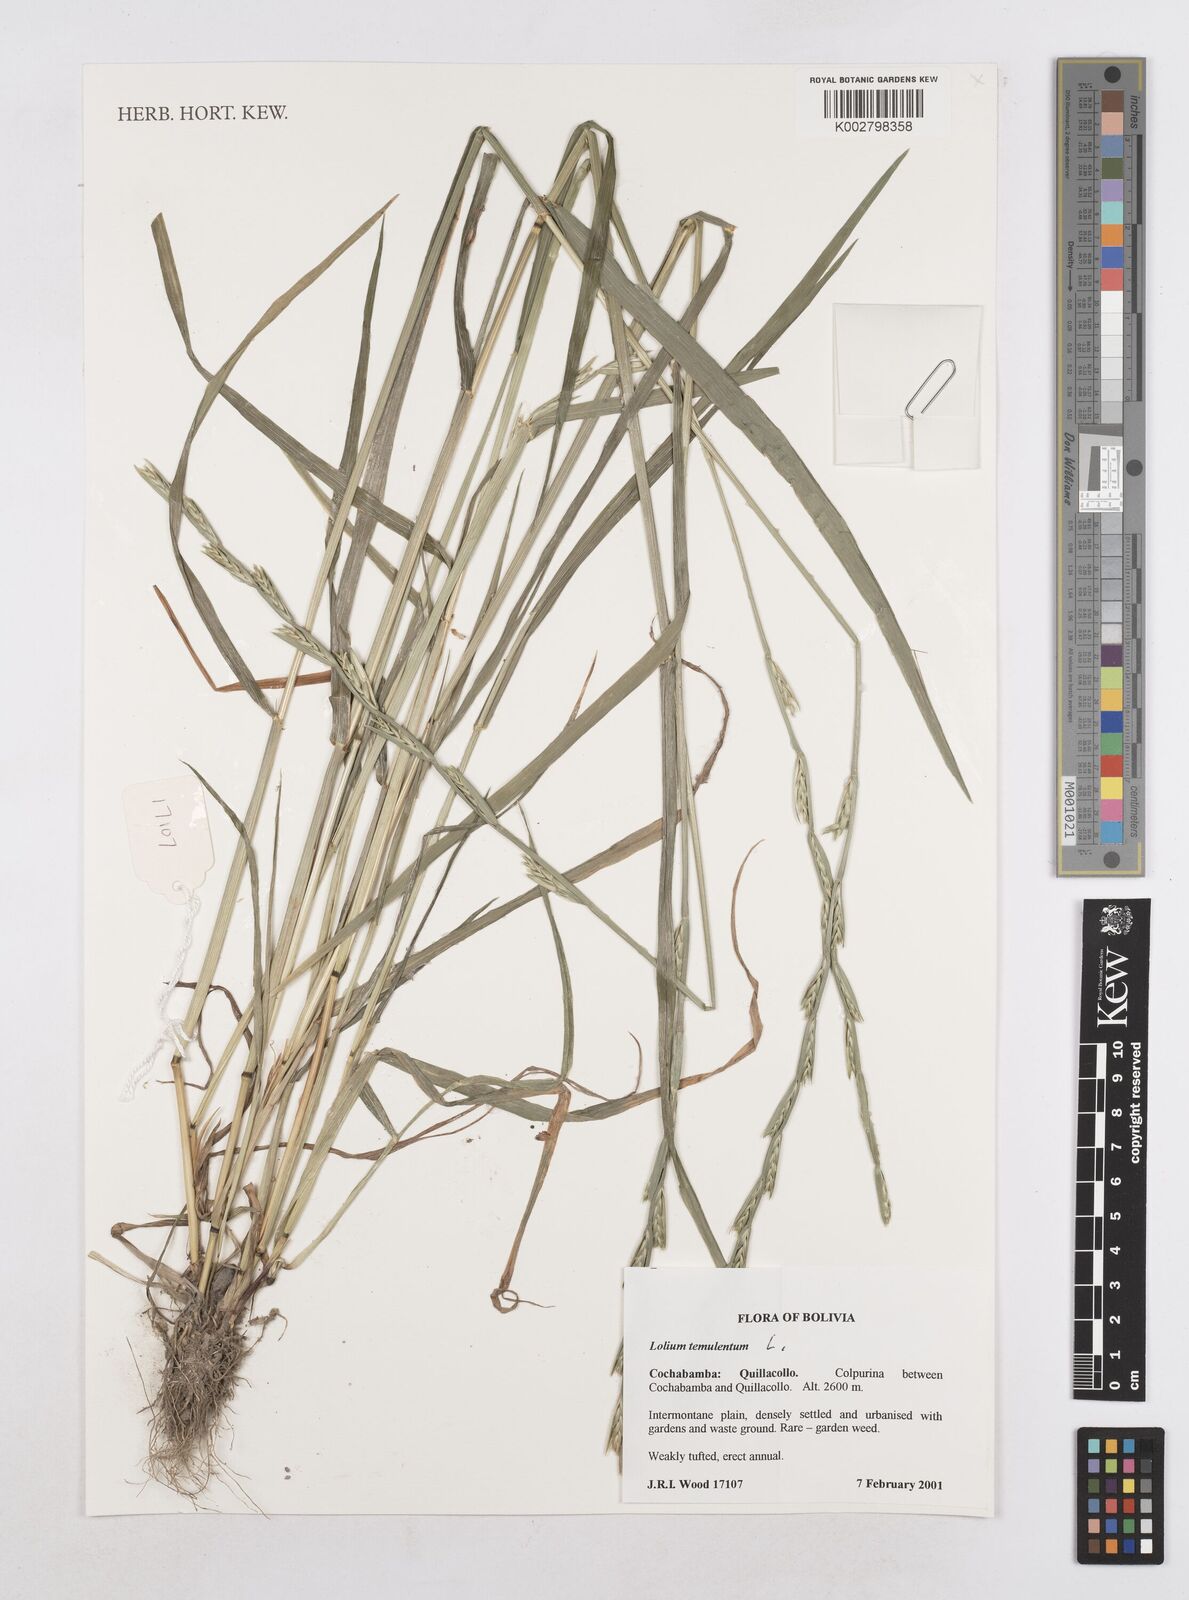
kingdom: Plantae
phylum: Tracheophyta
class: Liliopsida
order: Poales
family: Poaceae
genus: Lolium
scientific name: Lolium temulentum
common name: Darnel
